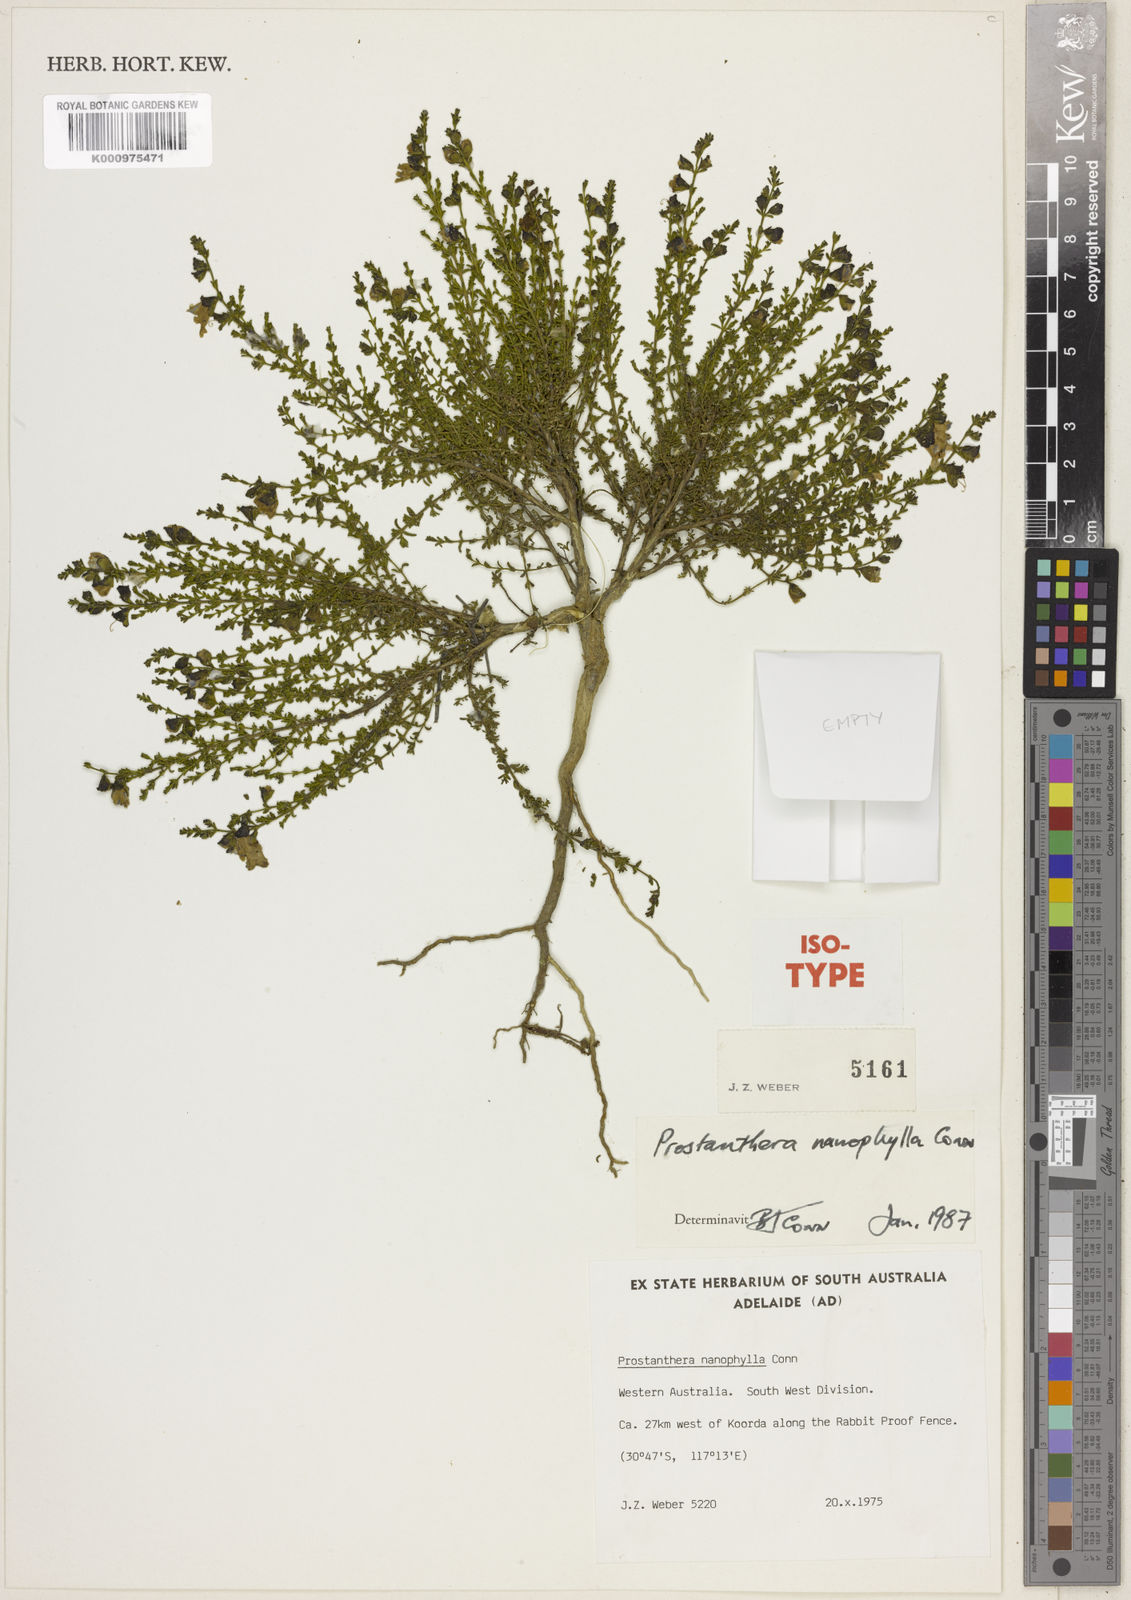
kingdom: Plantae
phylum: Tracheophyta
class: Magnoliopsida
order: Lamiales
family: Lamiaceae
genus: Prostanthera
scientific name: Prostanthera nanophylla
